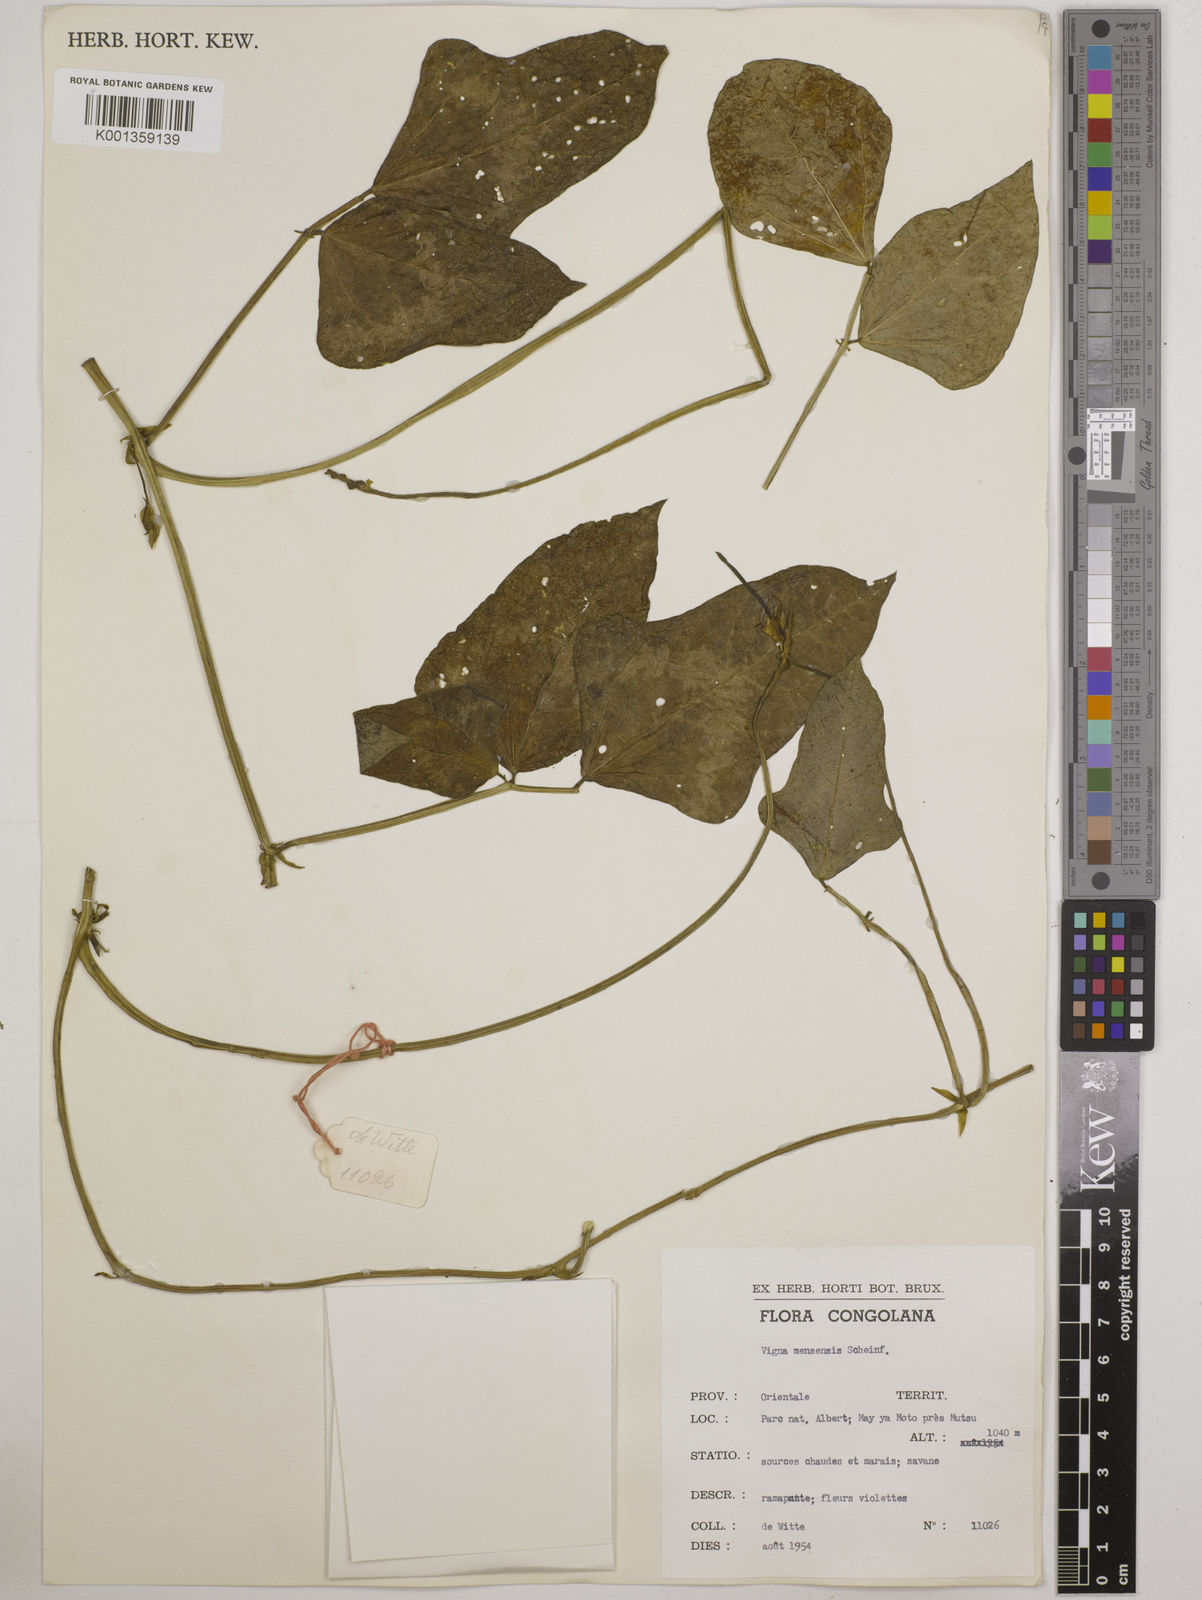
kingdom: Plantae
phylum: Tracheophyta
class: Magnoliopsida
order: Fabales
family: Fabaceae
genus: Vigna
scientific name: Vigna unguiculata
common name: Cowpea
